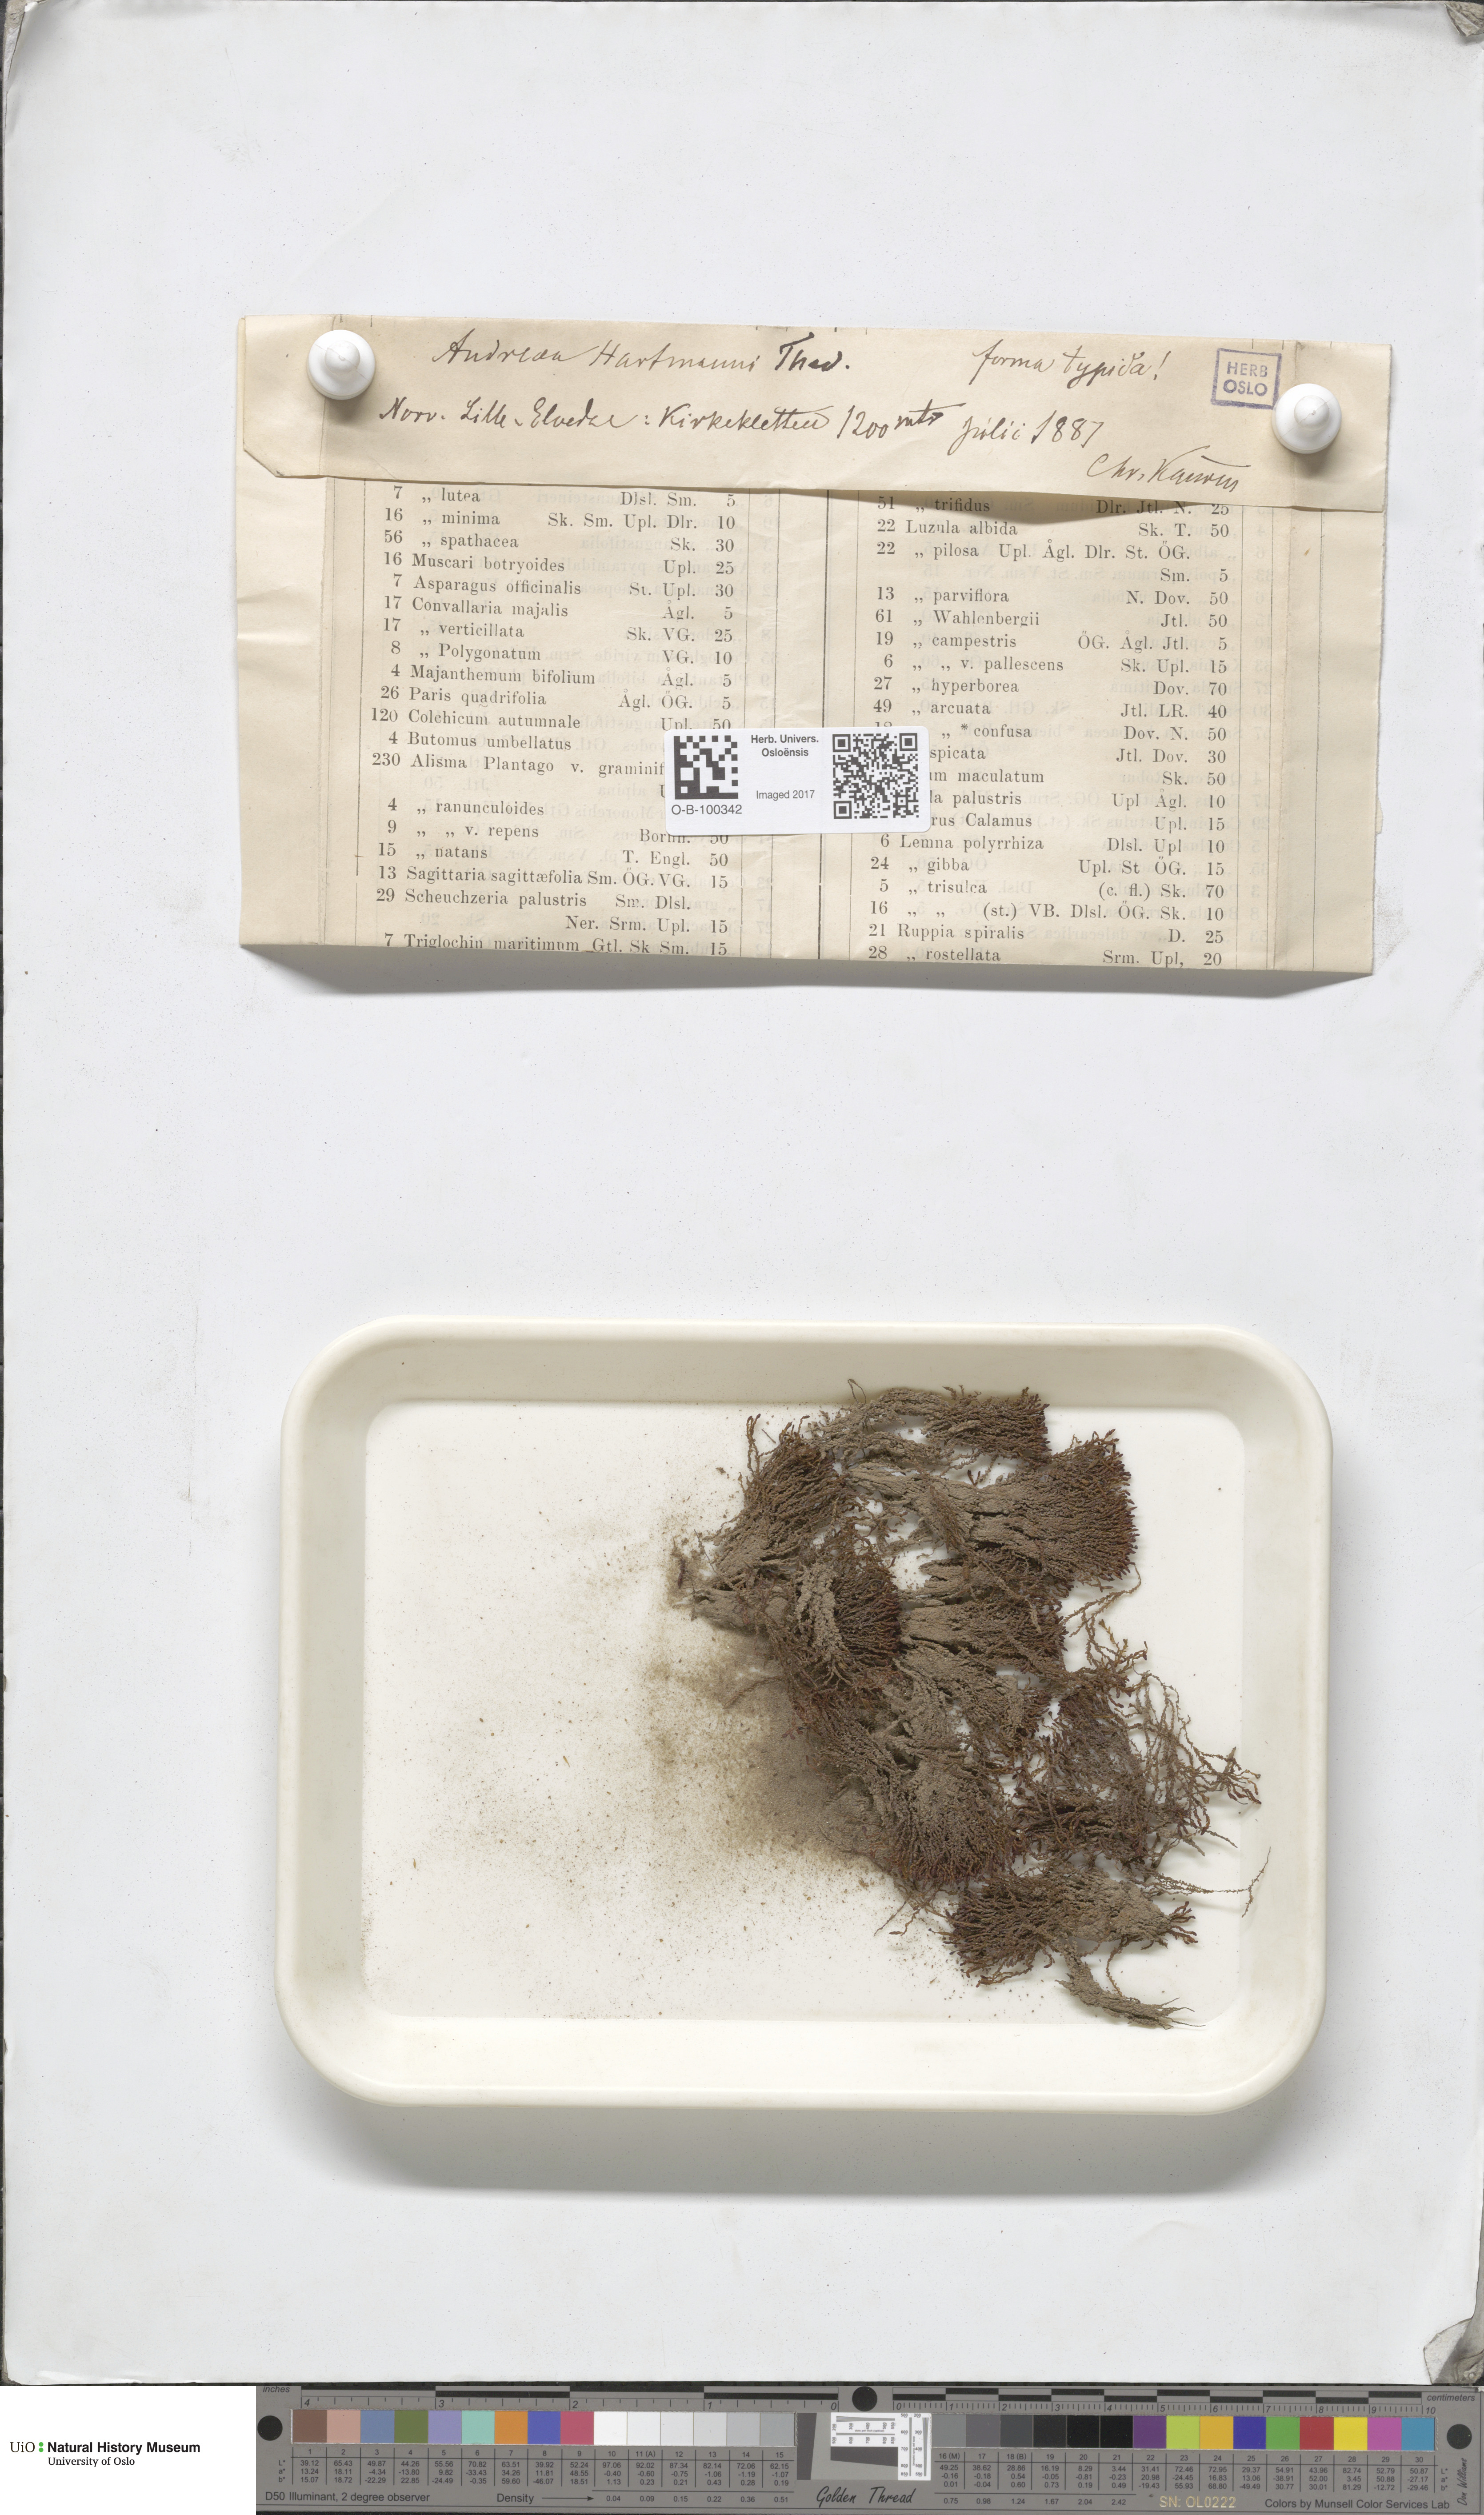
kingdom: Plantae
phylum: Bryophyta
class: Andreaeopsida
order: Andreaeales
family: Andreaeaceae
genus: Andreaea
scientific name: Andreaea hookeri
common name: Alpine rock-moss
